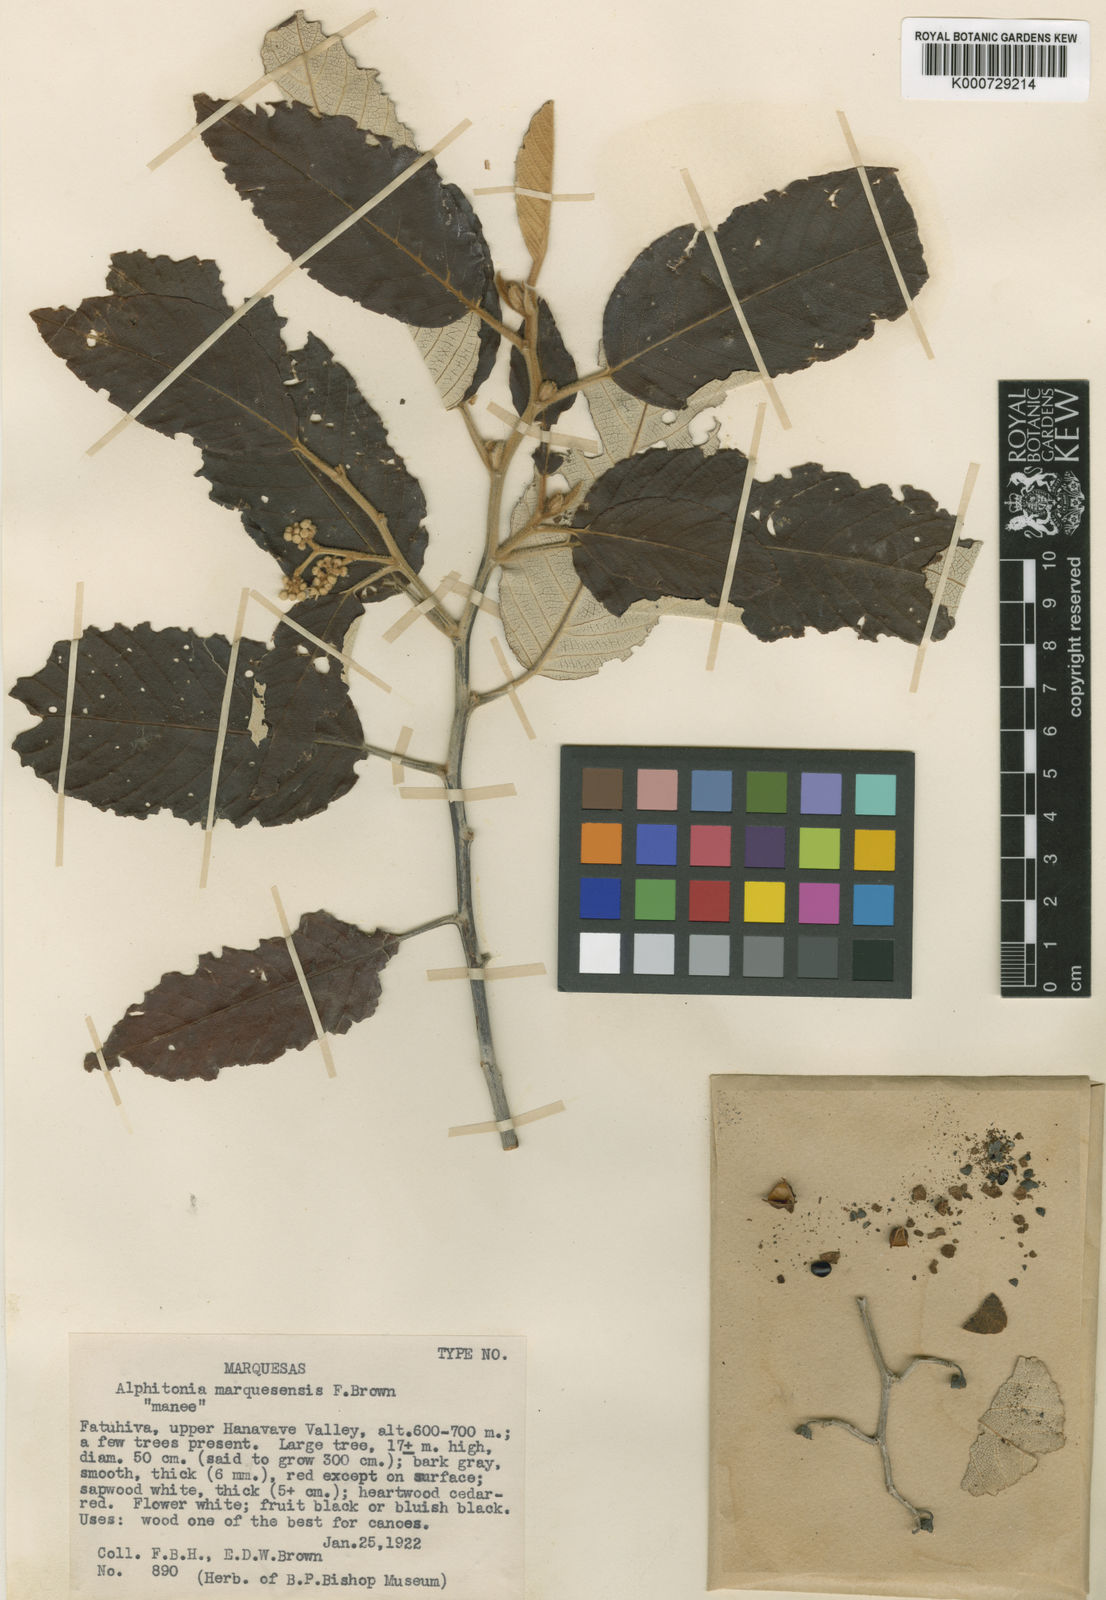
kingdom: Plantae
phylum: Tracheophyta
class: Magnoliopsida
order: Rosales
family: Rhamnaceae
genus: Alphitonia
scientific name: Alphitonia marquesensis
